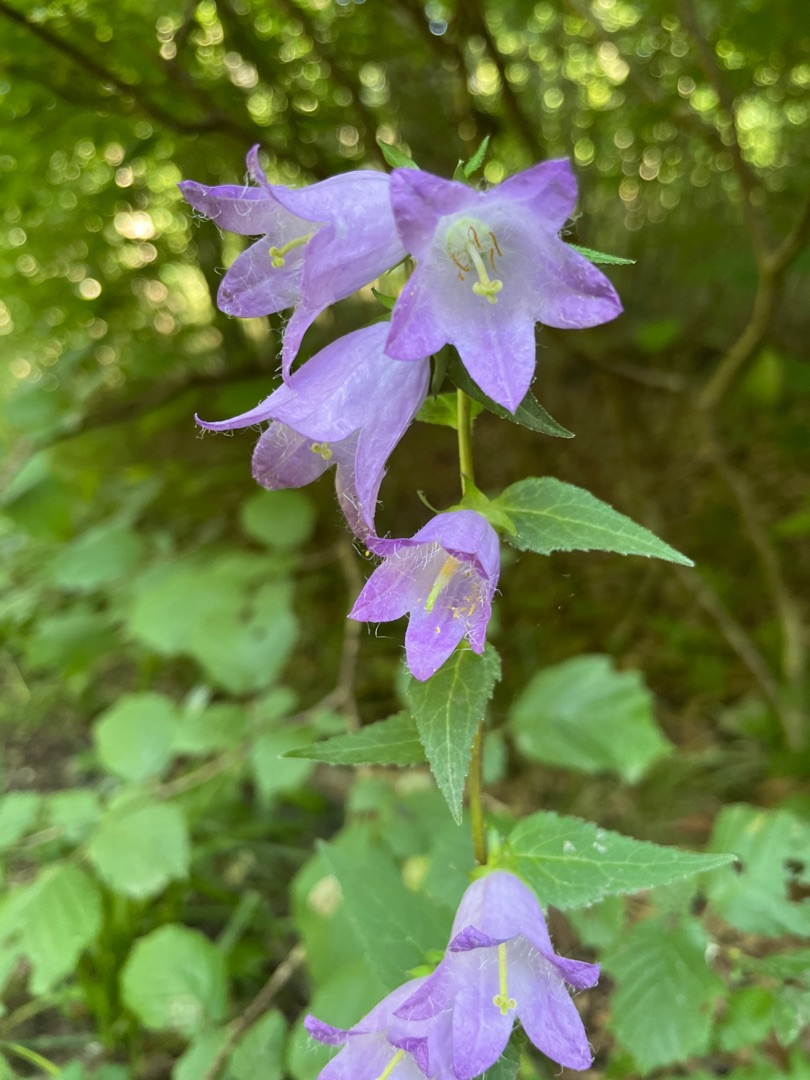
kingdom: Plantae
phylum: Tracheophyta
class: Magnoliopsida
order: Asterales
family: Campanulaceae
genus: Campanula
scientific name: Campanula trachelium
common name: Nælde-klokke
